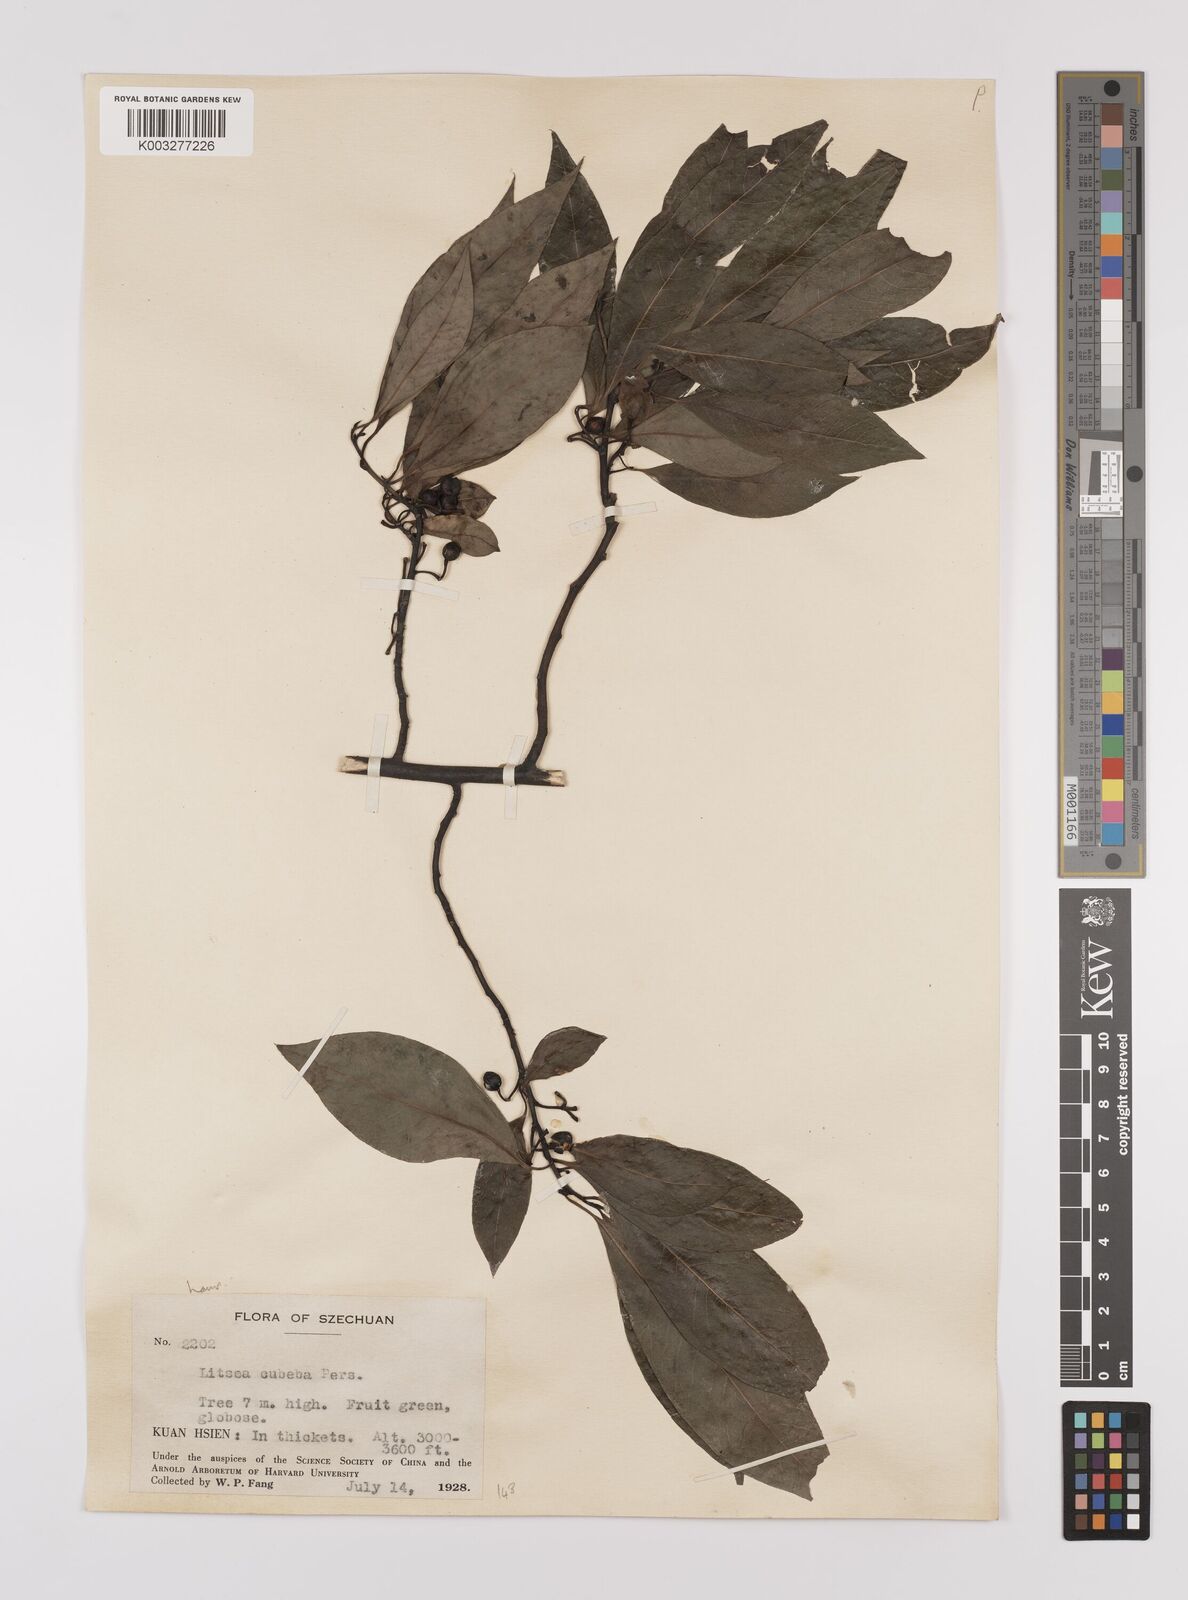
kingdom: Plantae
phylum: Tracheophyta
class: Magnoliopsida
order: Laurales
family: Lauraceae
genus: Litsea
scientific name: Litsea cubeba
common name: Mountain-pepper
